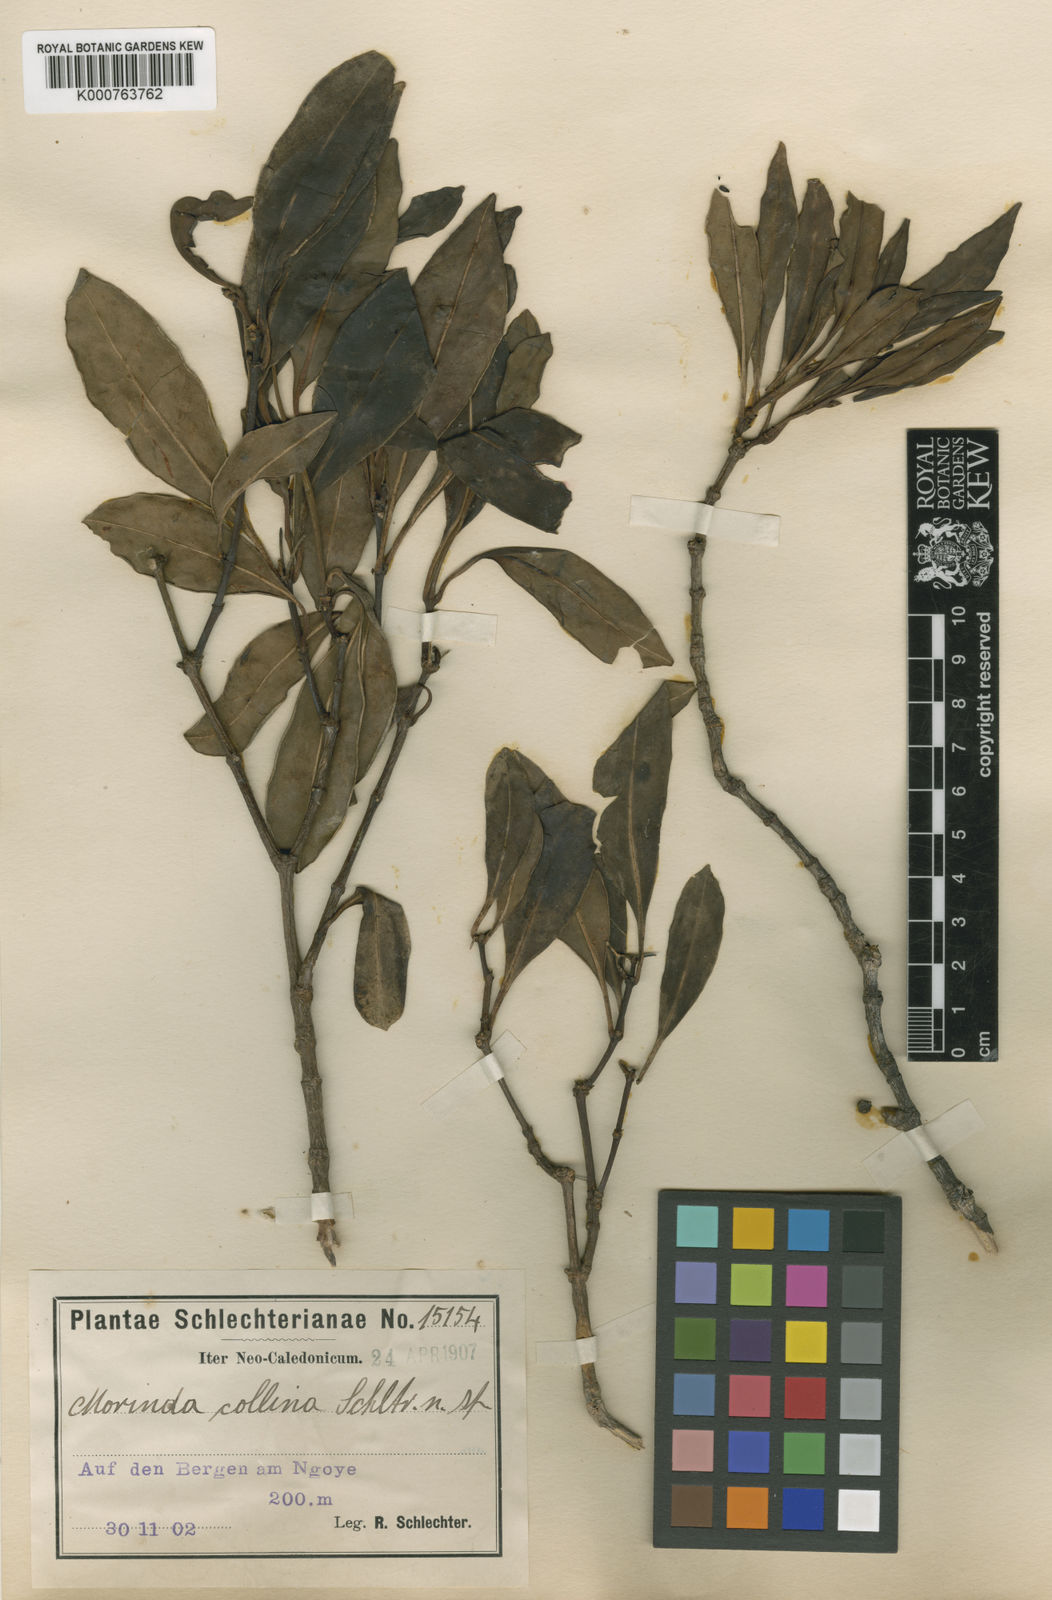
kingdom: Plantae
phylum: Tracheophyta
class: Magnoliopsida
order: Gentianales
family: Rubiaceae
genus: Gynochthodes
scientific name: Gynochthodes collina
